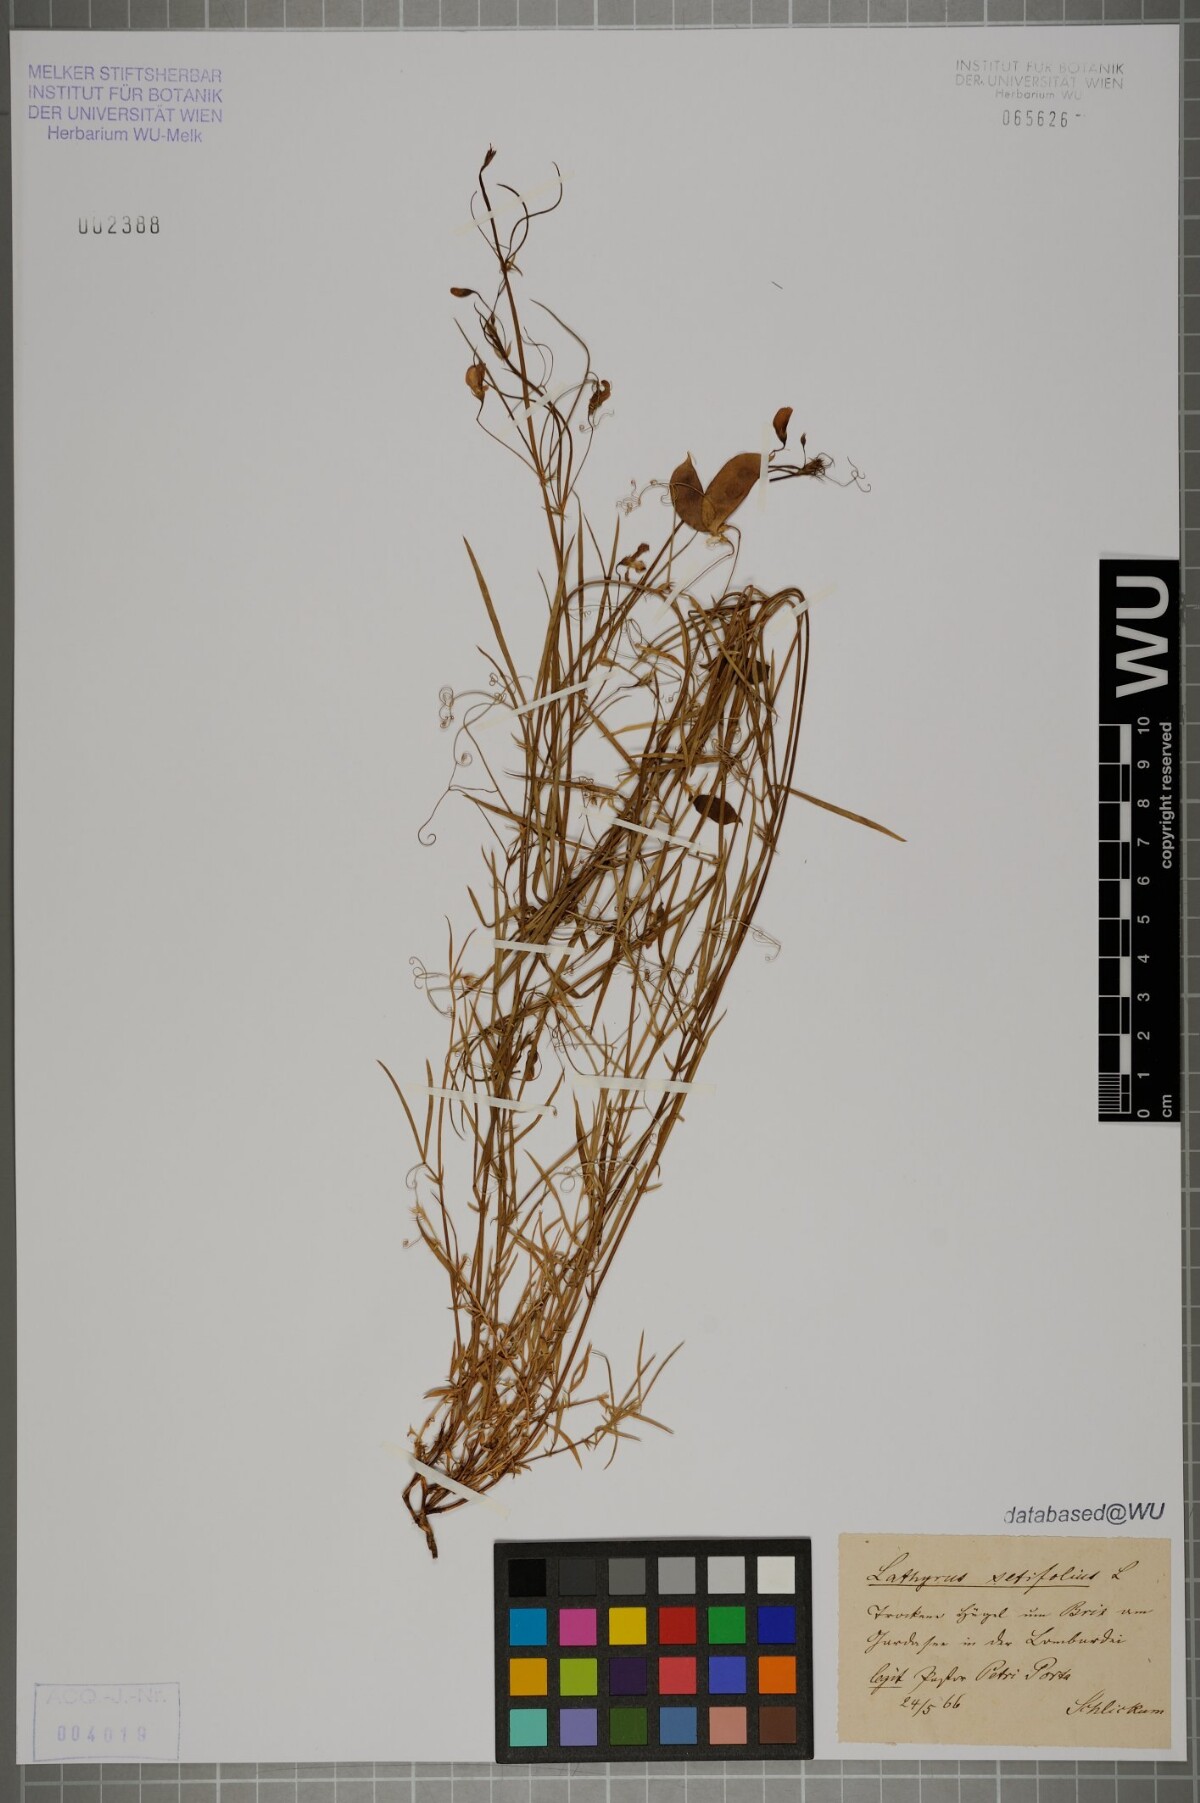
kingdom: Plantae
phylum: Tracheophyta
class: Magnoliopsida
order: Fabales
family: Fabaceae
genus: Lathyrus
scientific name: Lathyrus setifolius
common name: Brown vetchling
